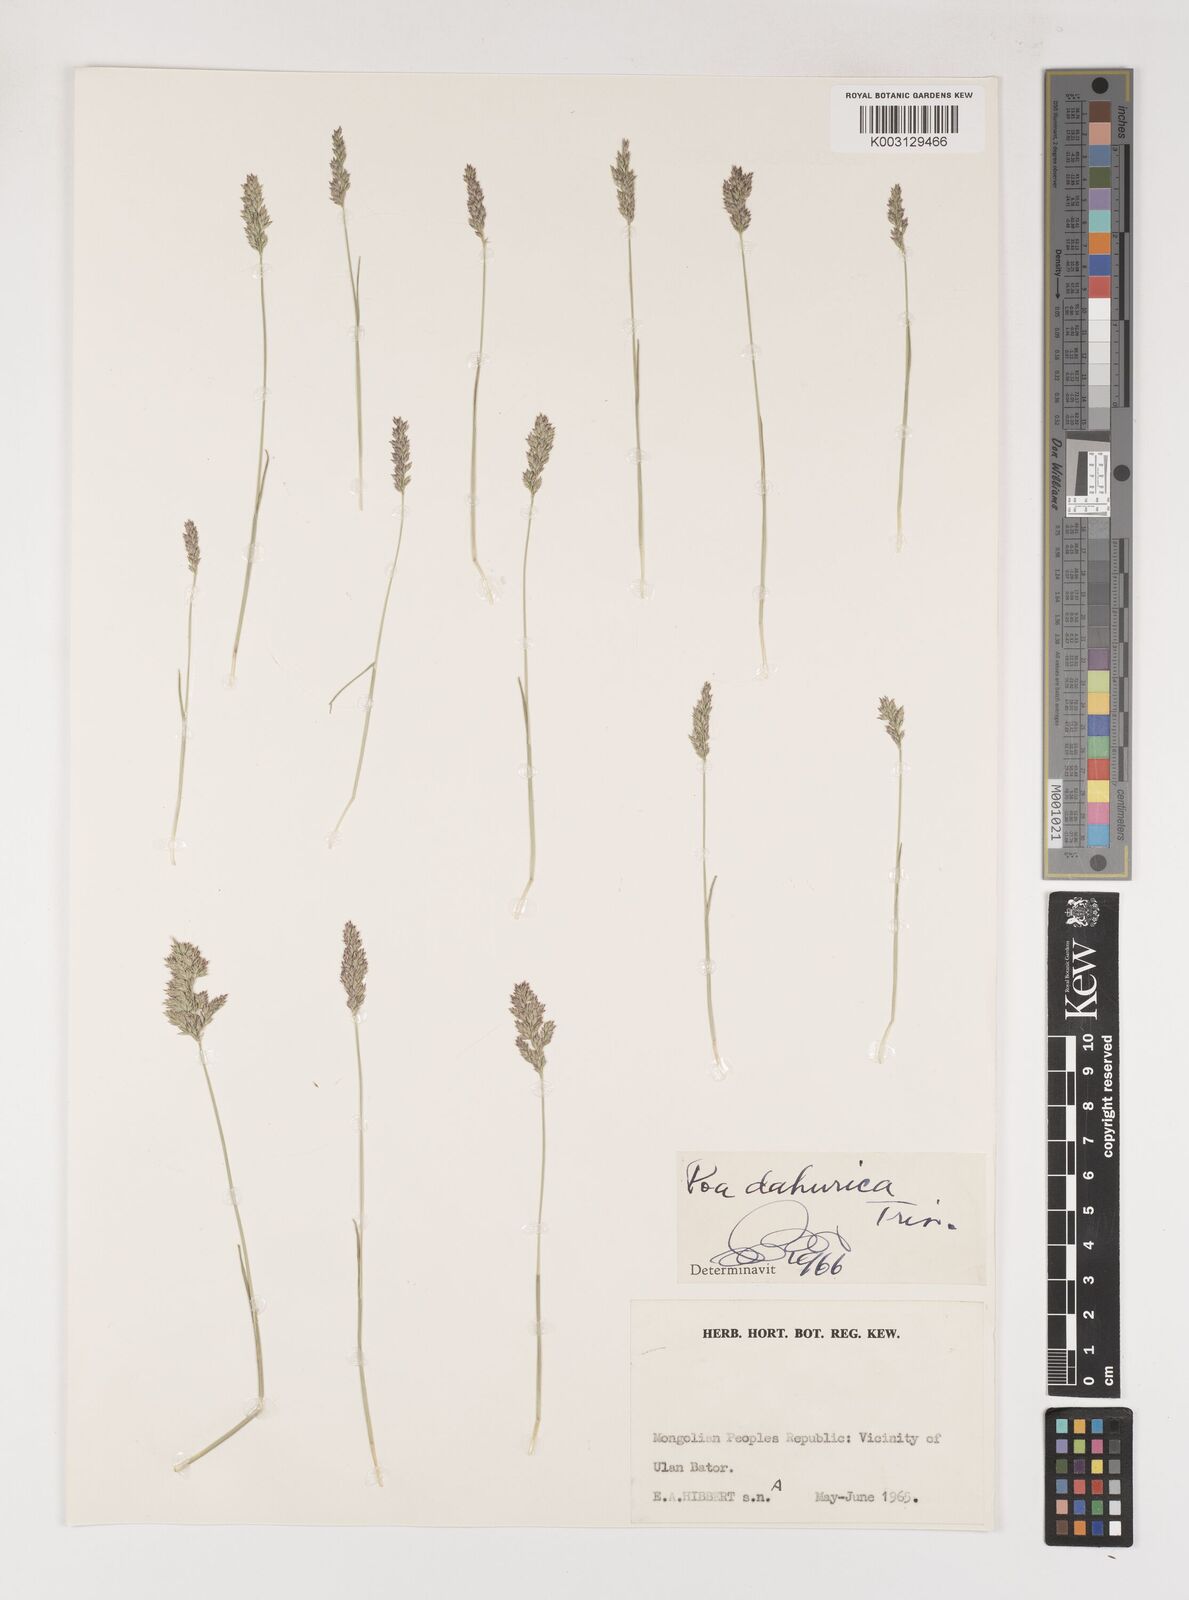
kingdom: Plantae
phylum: Tracheophyta
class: Liliopsida
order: Poales
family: Poaceae
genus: Poa
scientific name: Poa attenuata
